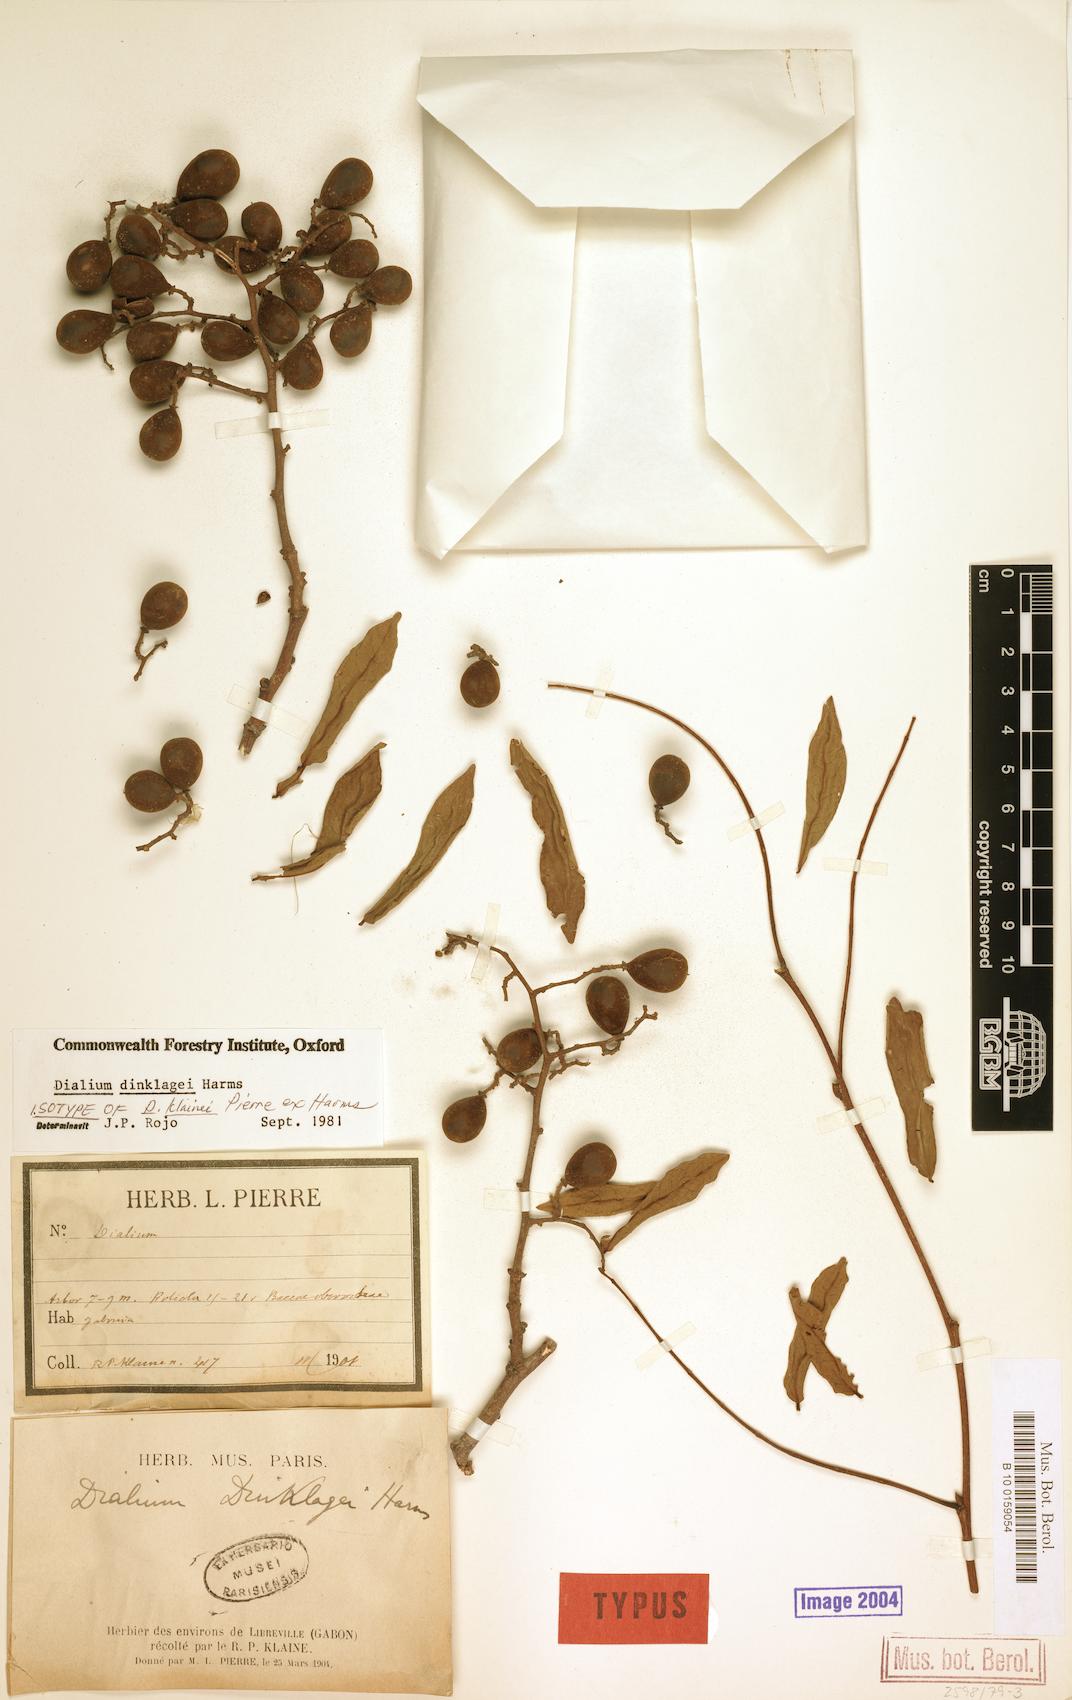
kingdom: Plantae
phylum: Tracheophyta
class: Magnoliopsida
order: Fabales
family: Fabaceae
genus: Dialium
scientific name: Dialium dinklagei
